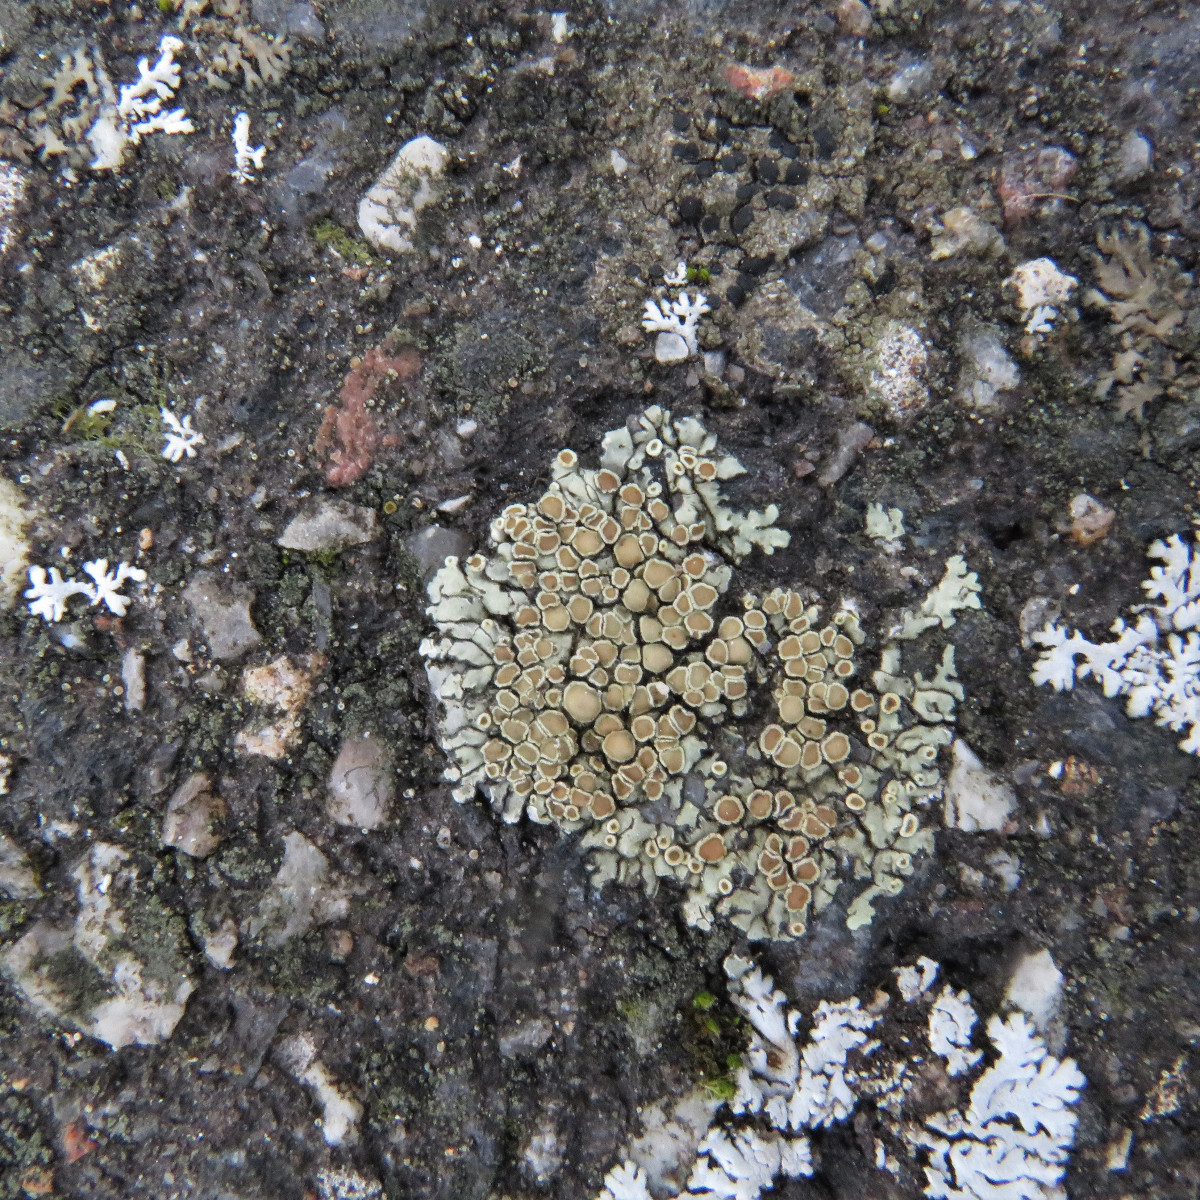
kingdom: Fungi
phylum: Ascomycota
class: Lecanoromycetes
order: Lecanorales
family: Lecanoraceae
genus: Protoparmeliopsis
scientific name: Protoparmeliopsis muralis
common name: randfliget kantskivelav
